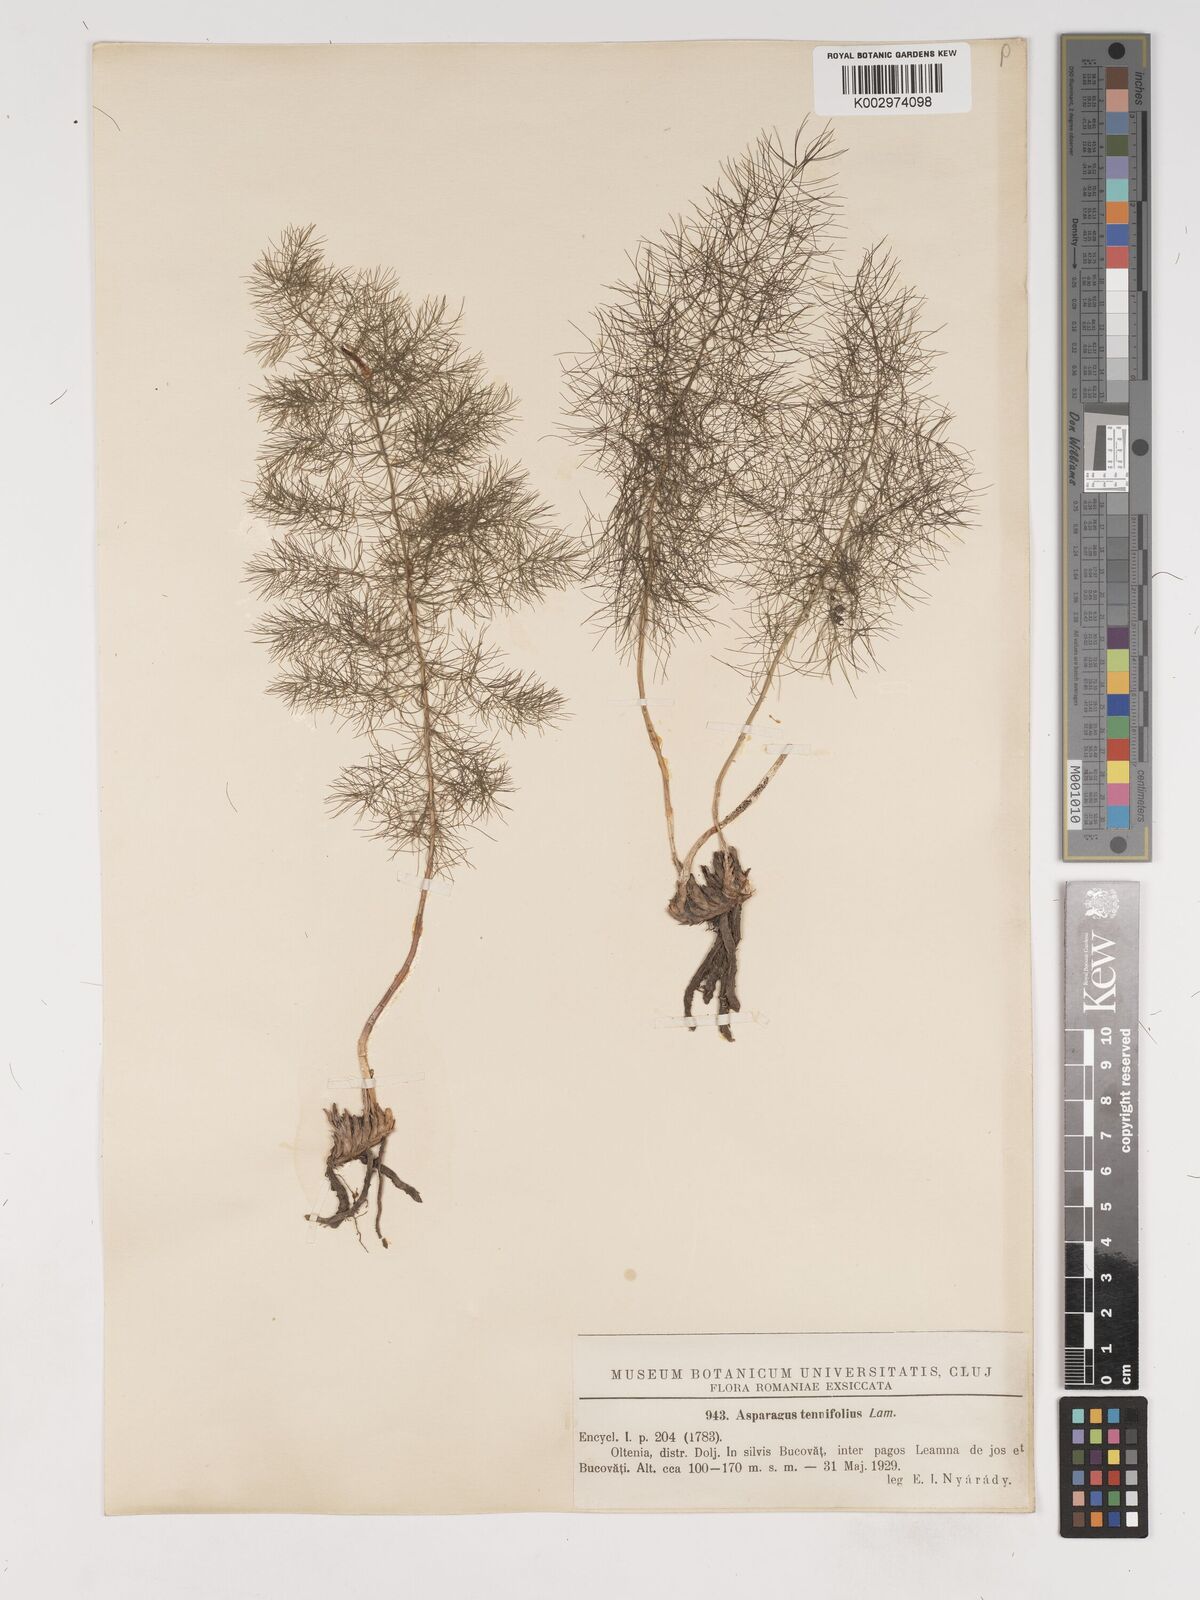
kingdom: Plantae
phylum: Tracheophyta
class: Liliopsida
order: Asparagales
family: Asparagaceae
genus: Asparagus
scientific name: Asparagus tenuifolius
